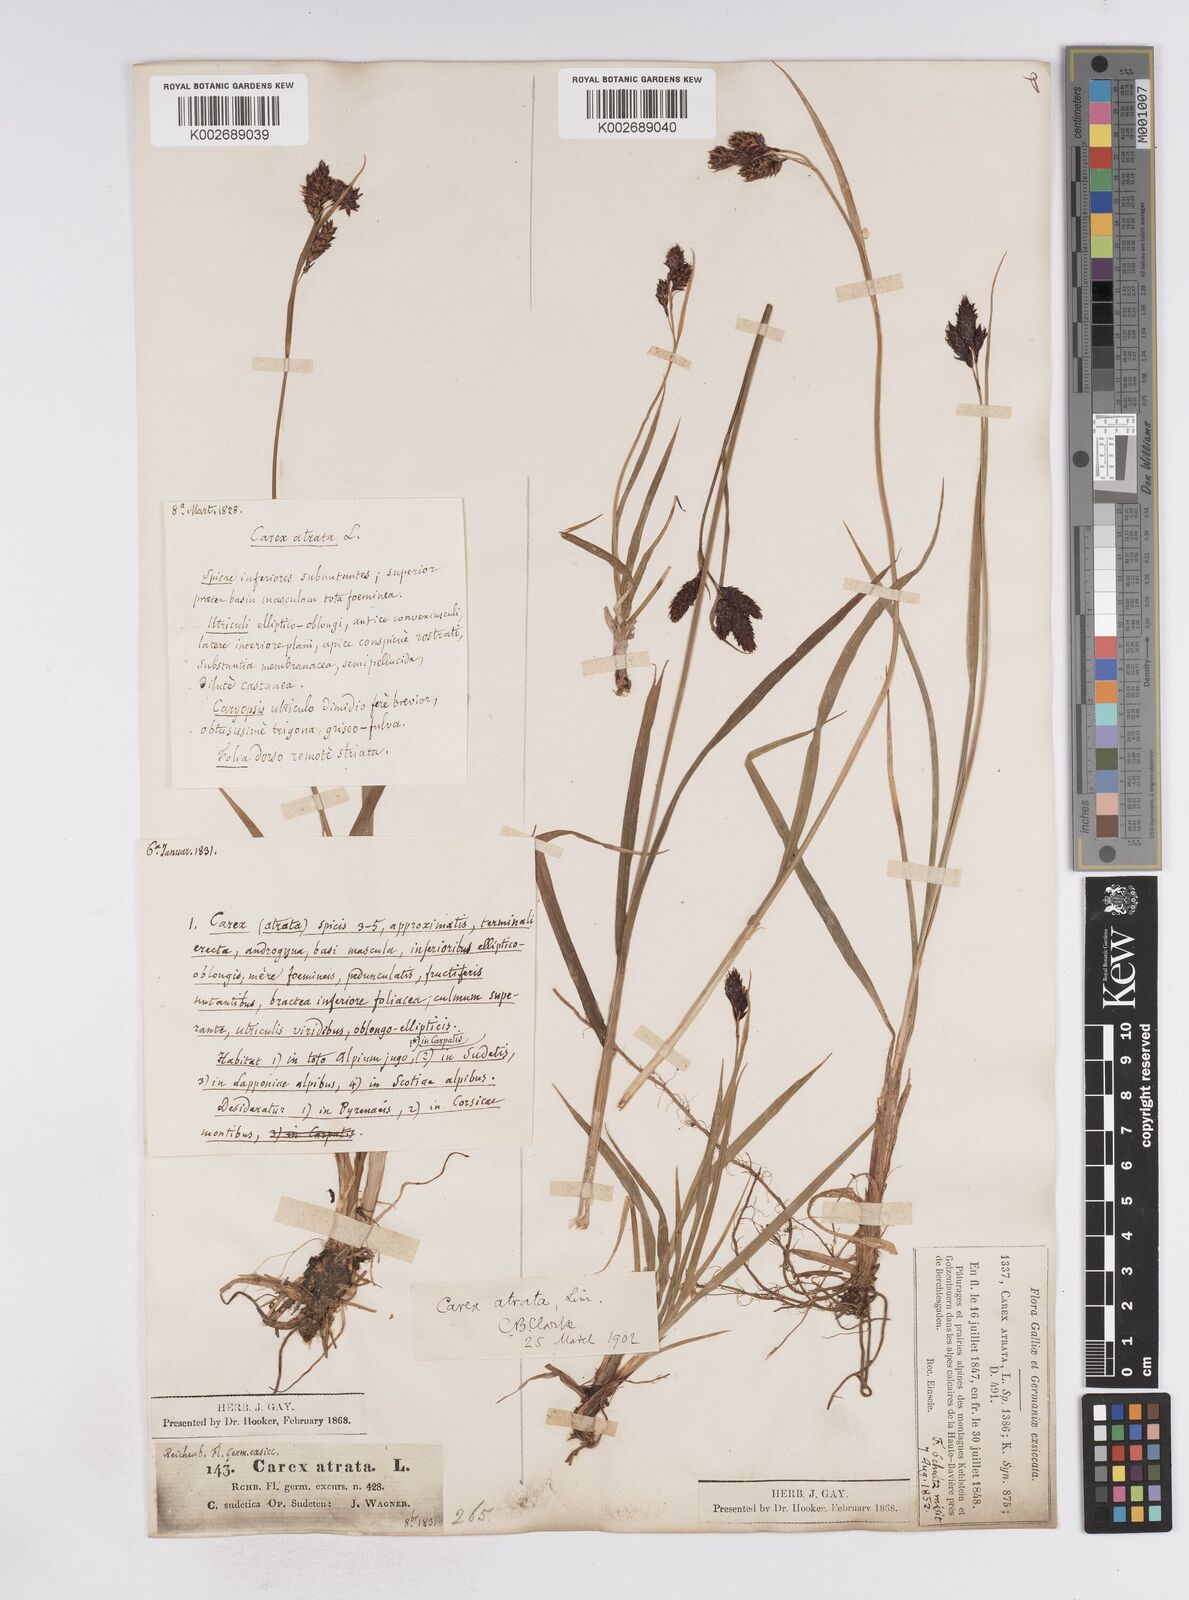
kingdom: Plantae
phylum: Tracheophyta
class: Liliopsida
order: Poales
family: Cyperaceae
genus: Carex
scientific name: Carex atrata
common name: Black alpine sedge
